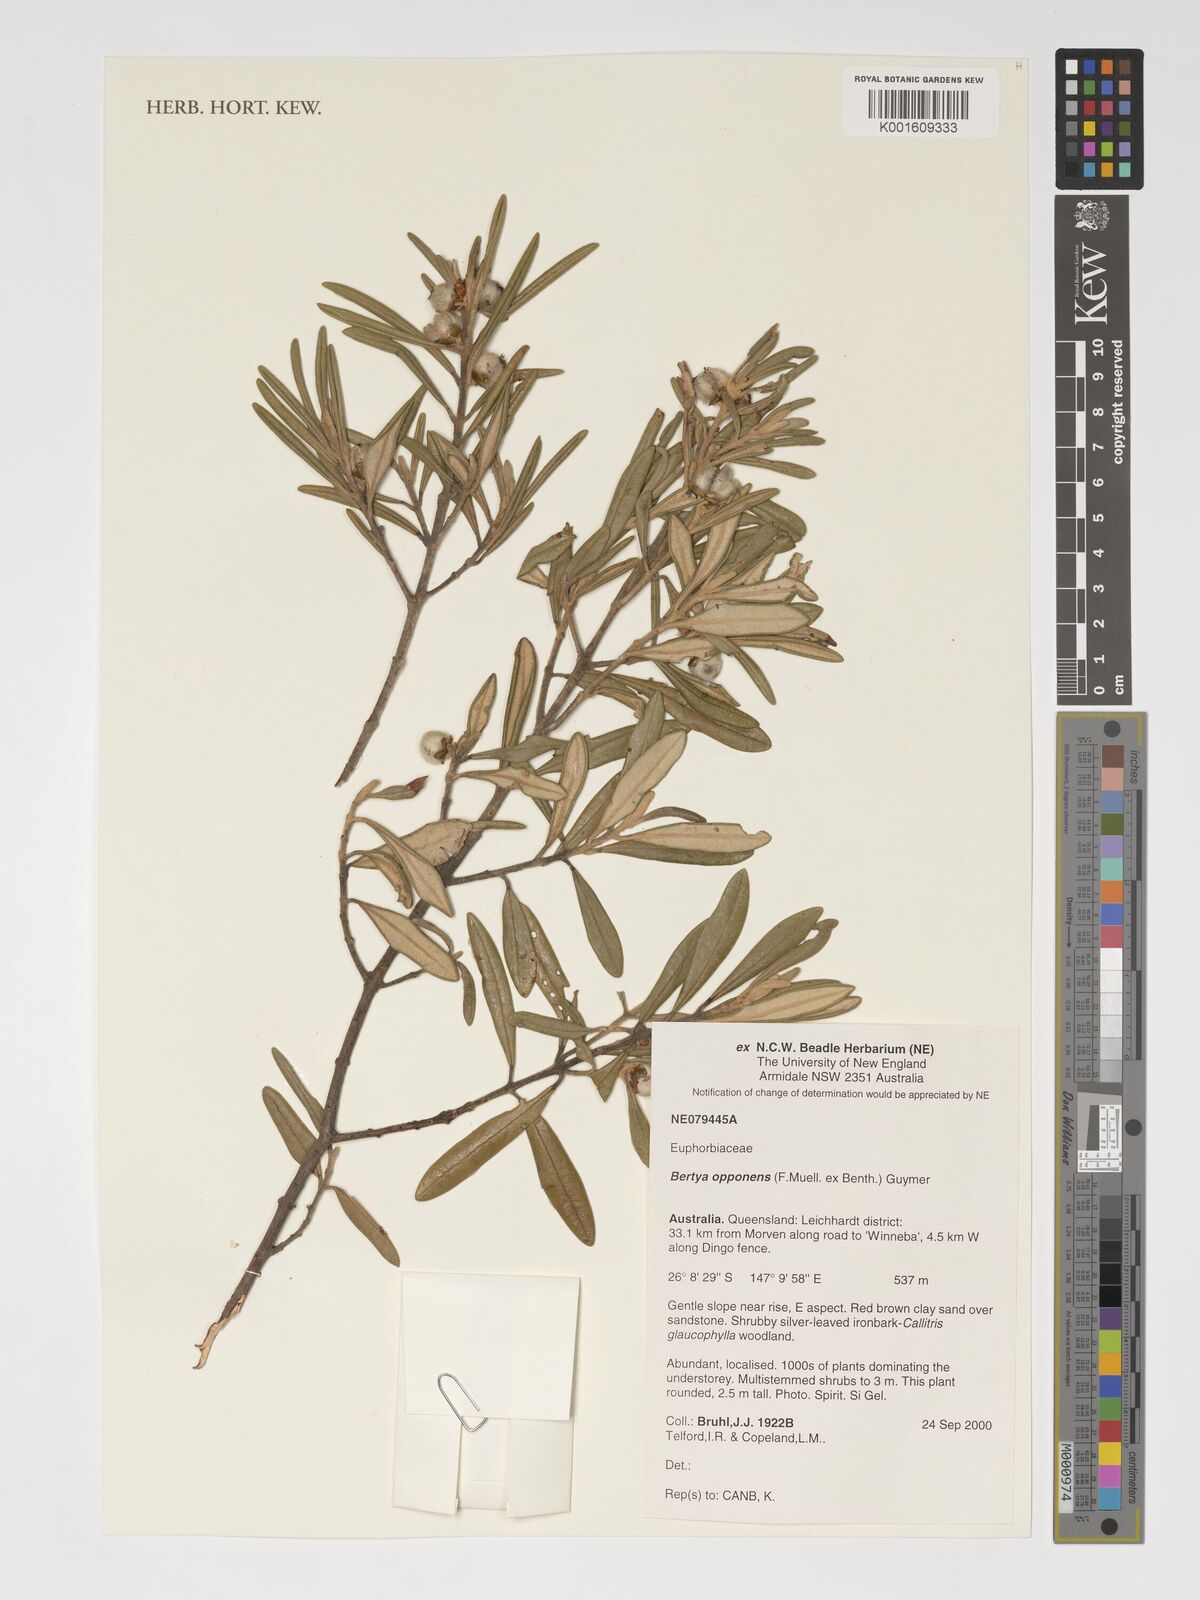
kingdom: Plantae
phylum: Tracheophyta
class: Magnoliopsida
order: Malpighiales
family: Euphorbiaceae
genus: Bertya
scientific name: Bertya opponens
